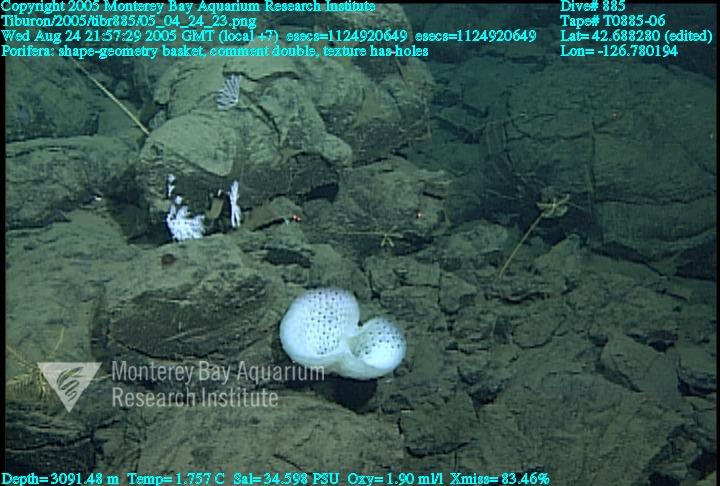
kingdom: Animalia
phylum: Porifera
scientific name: Porifera
